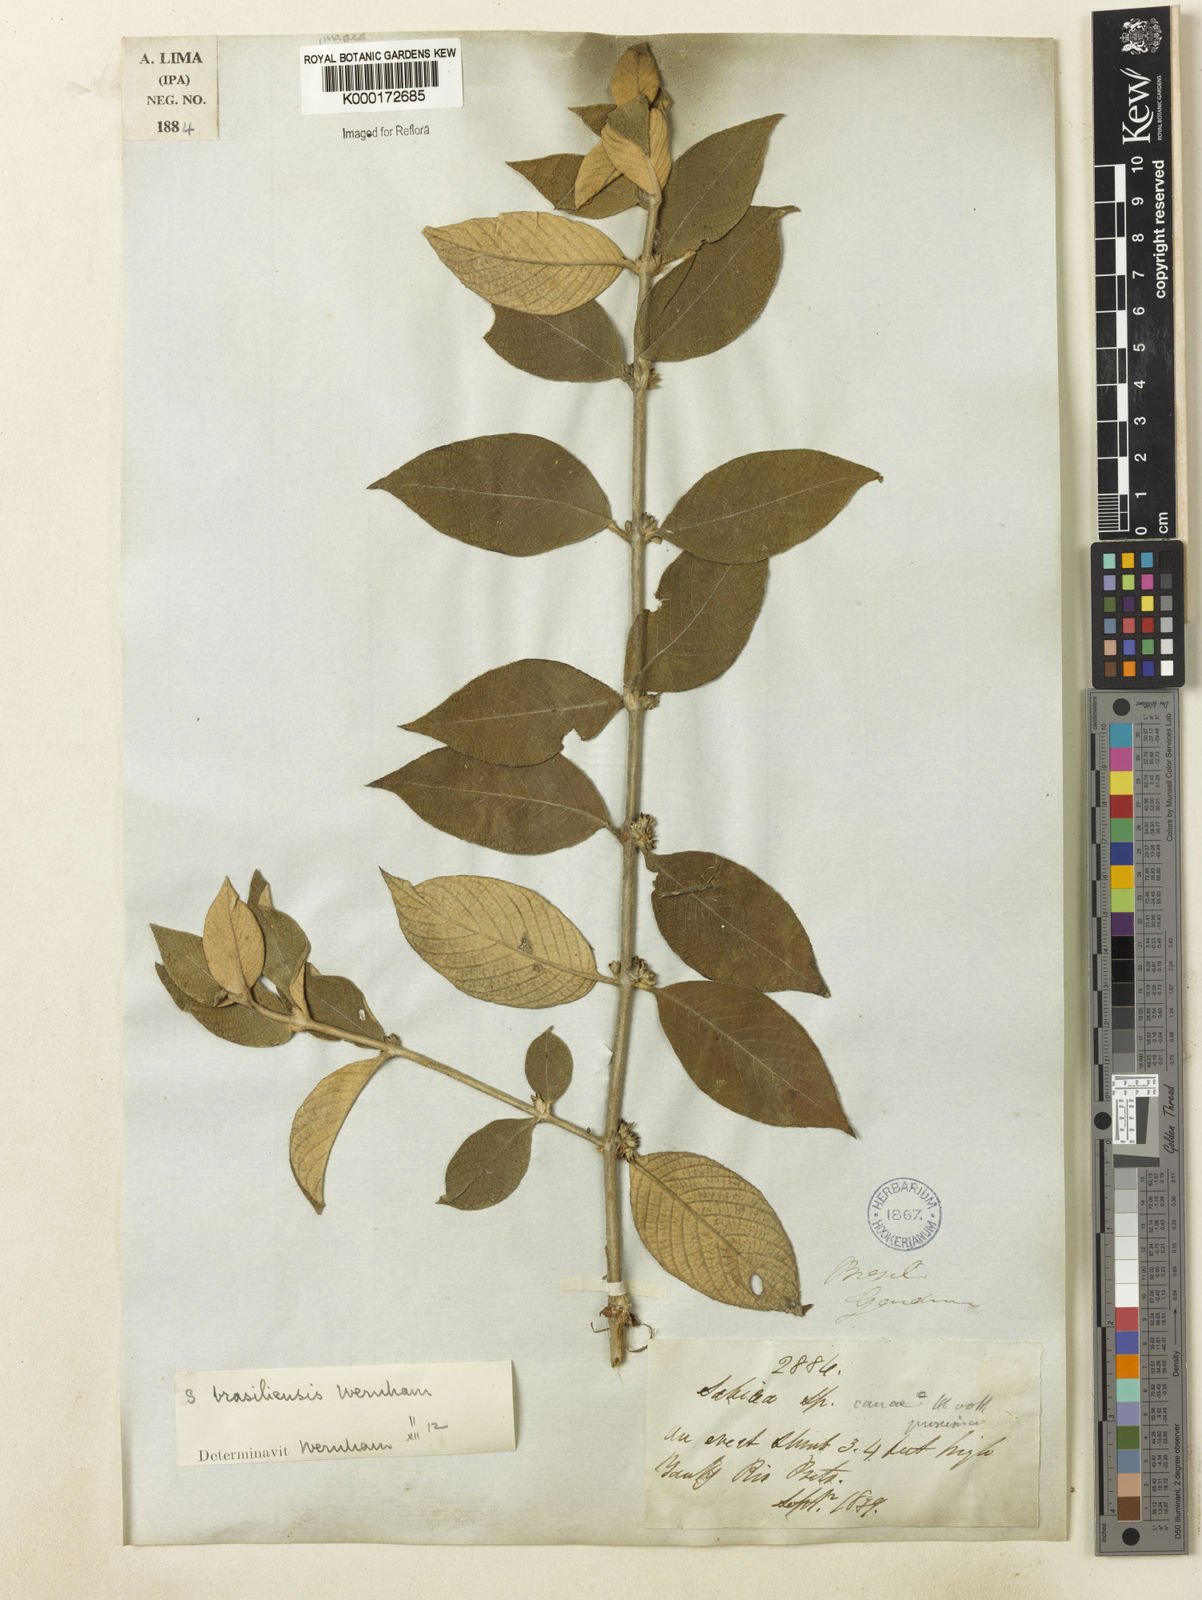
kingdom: Plantae
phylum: Tracheophyta
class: Magnoliopsida
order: Gentianales
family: Rubiaceae
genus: Sabicea
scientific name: Sabicea
